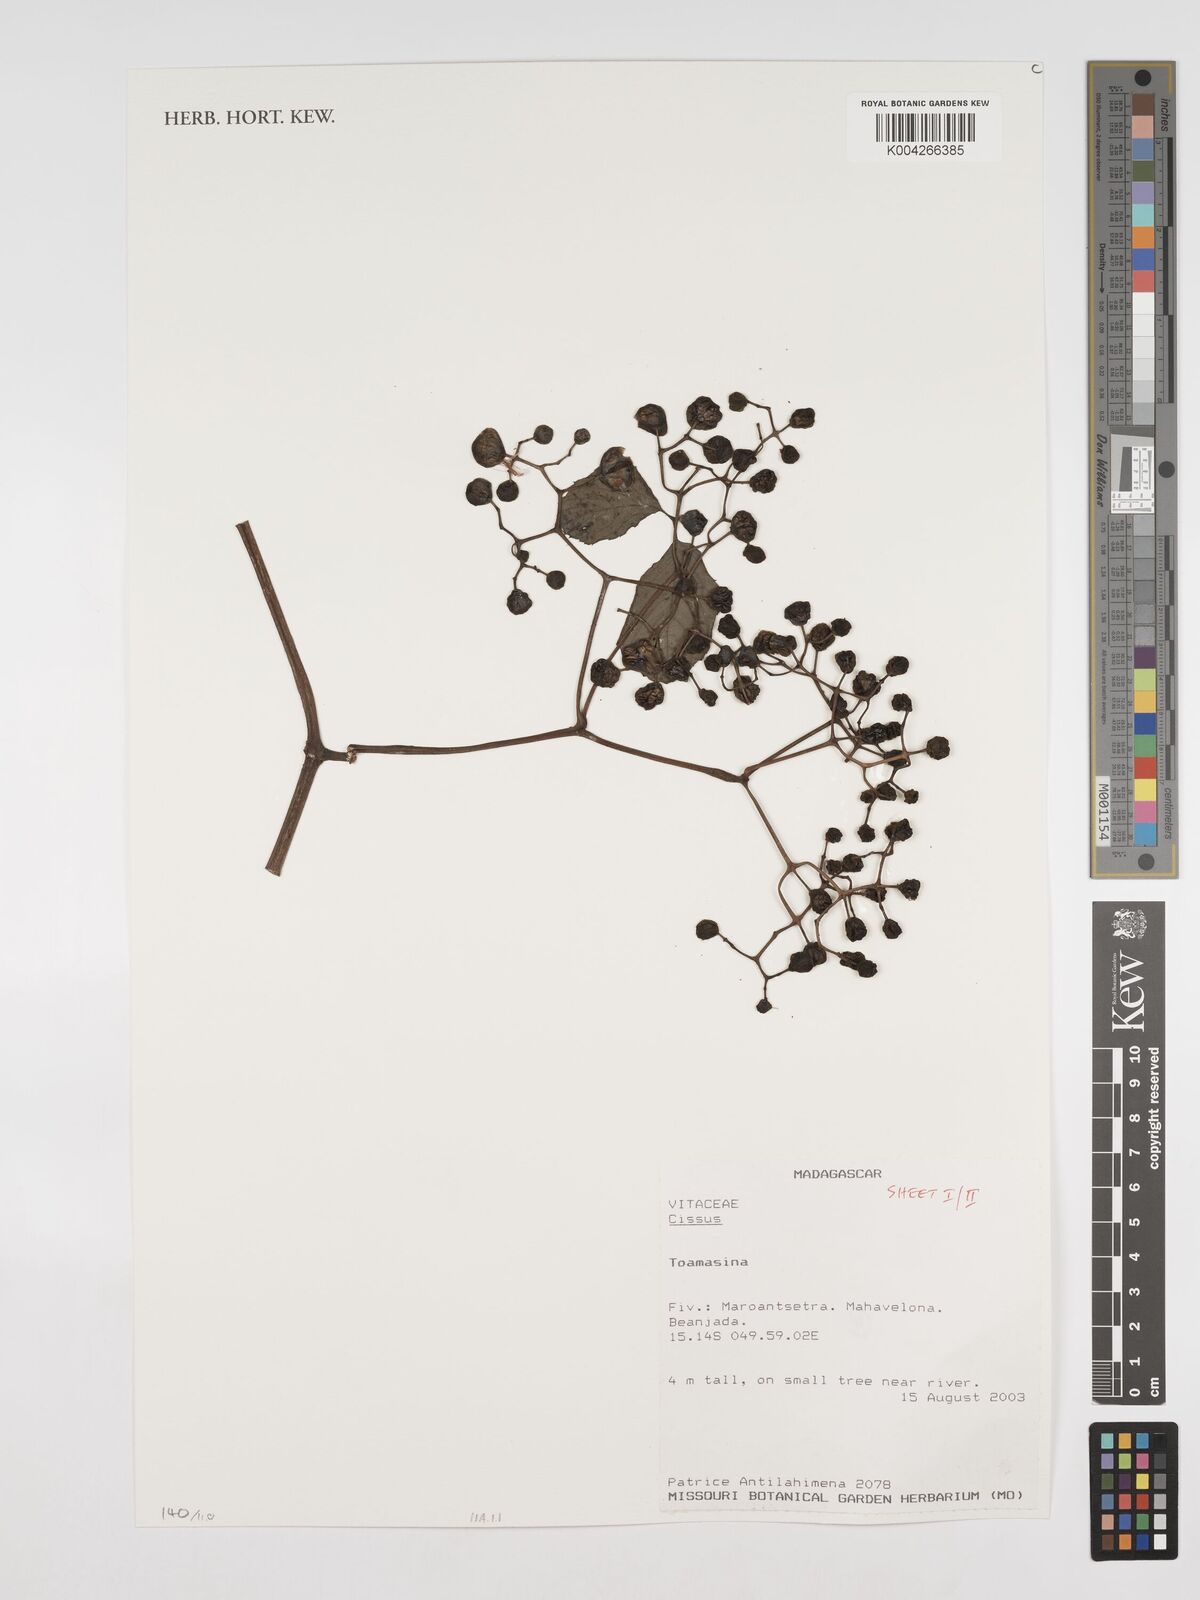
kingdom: Plantae
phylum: Tracheophyta
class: Magnoliopsida
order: Vitales
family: Vitaceae
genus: Cissus
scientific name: Cissus
